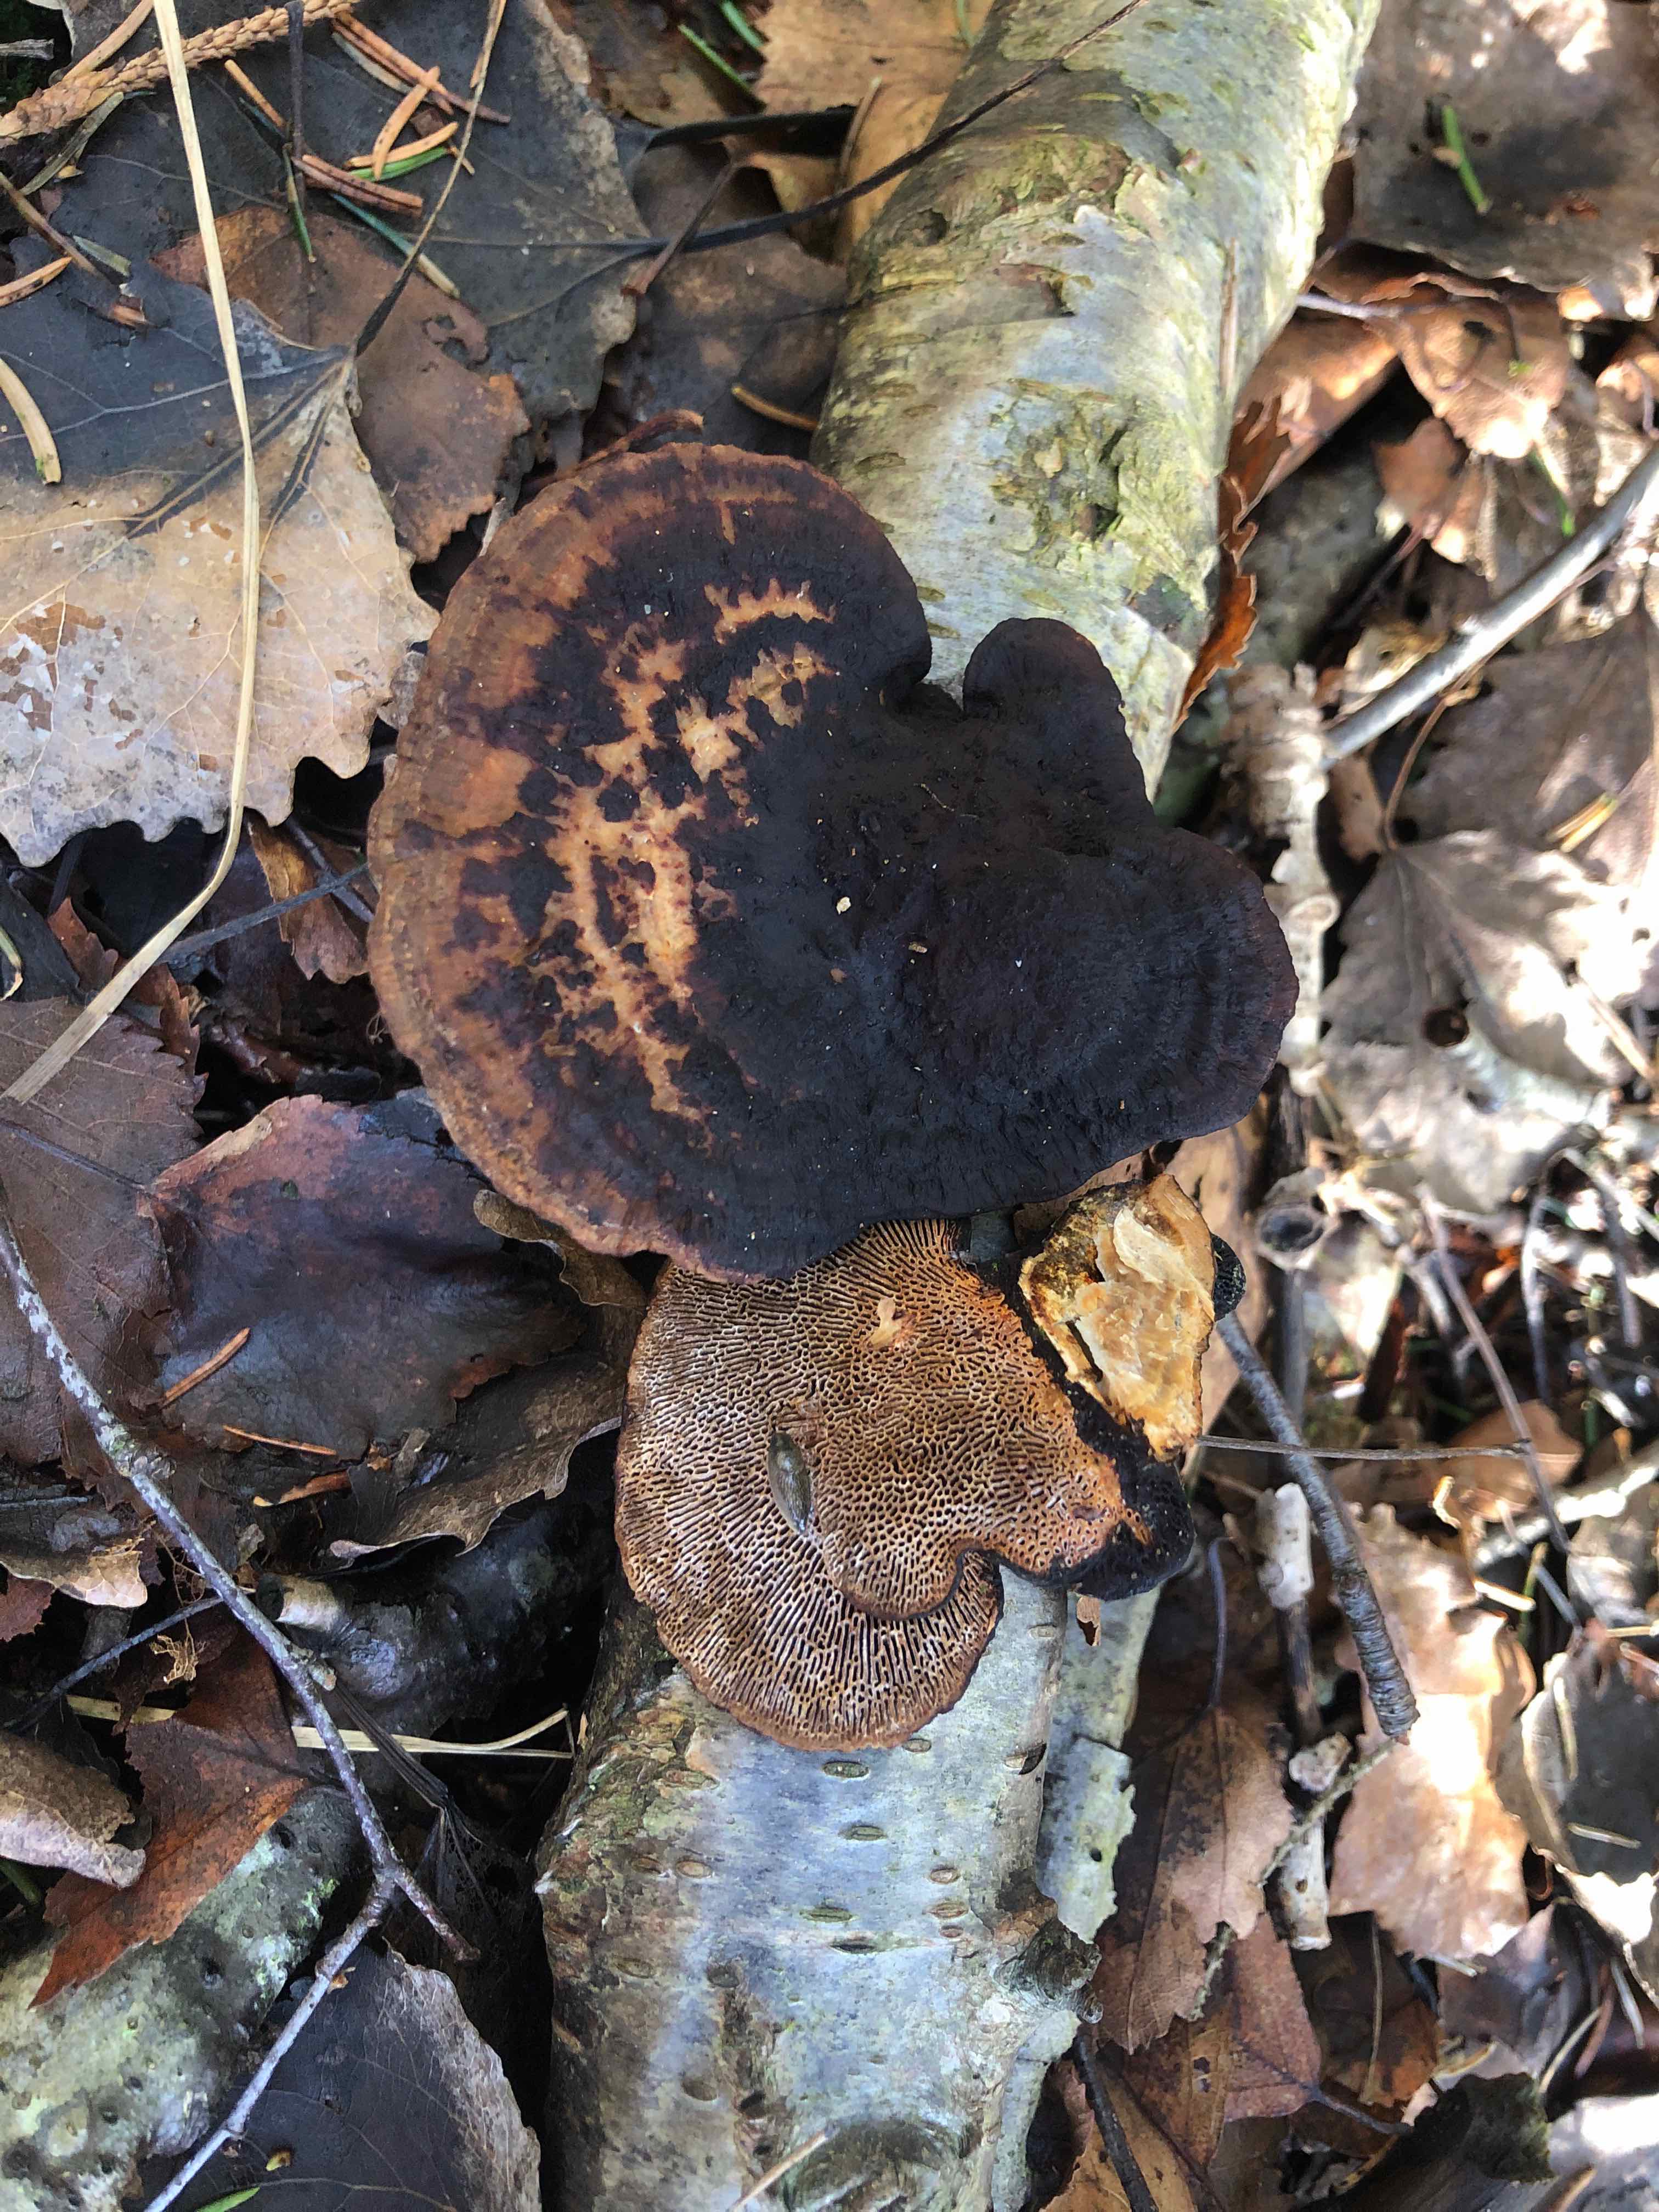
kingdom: Fungi
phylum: Basidiomycota
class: Agaricomycetes
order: Polyporales
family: Polyporaceae
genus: Daedaleopsis
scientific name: Daedaleopsis confragosa
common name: rødmende læderporesvamp
